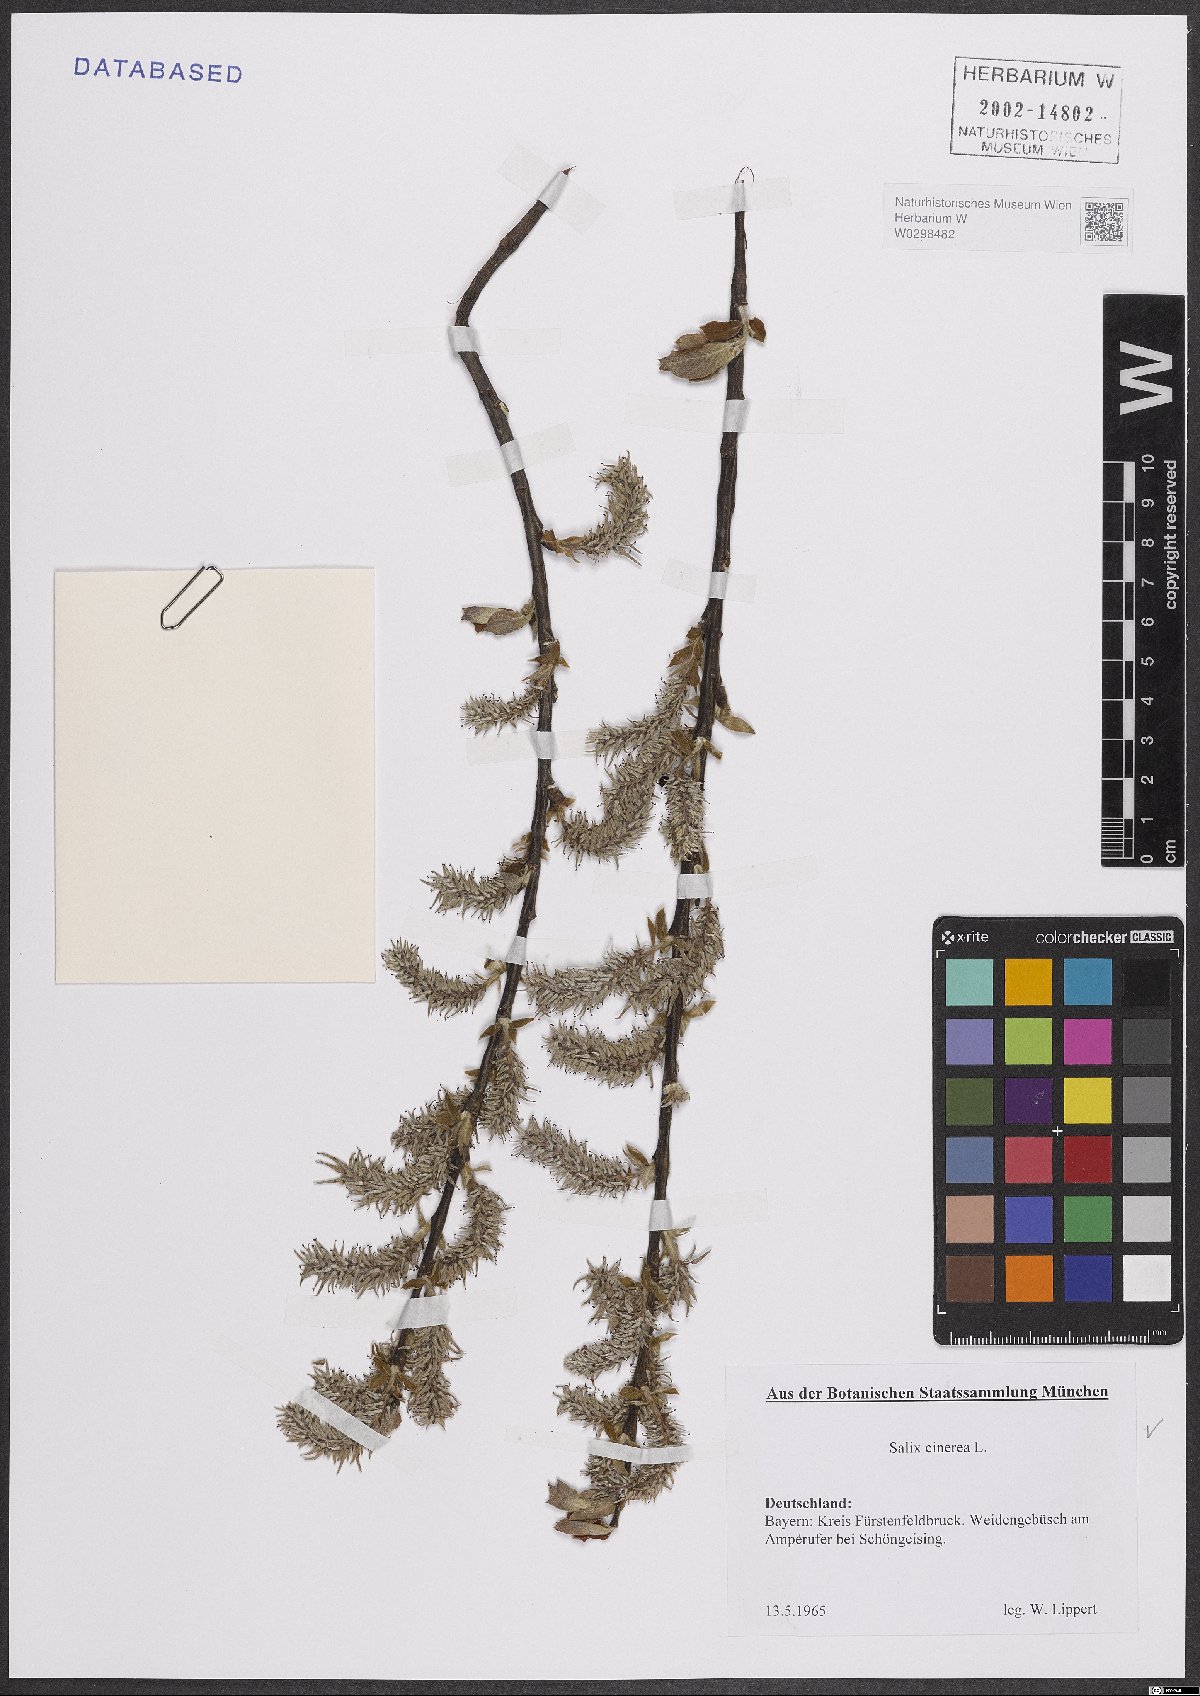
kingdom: Plantae
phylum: Tracheophyta
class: Magnoliopsida
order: Malpighiales
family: Salicaceae
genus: Salix
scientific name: Salix cinerea
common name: Common sallow
